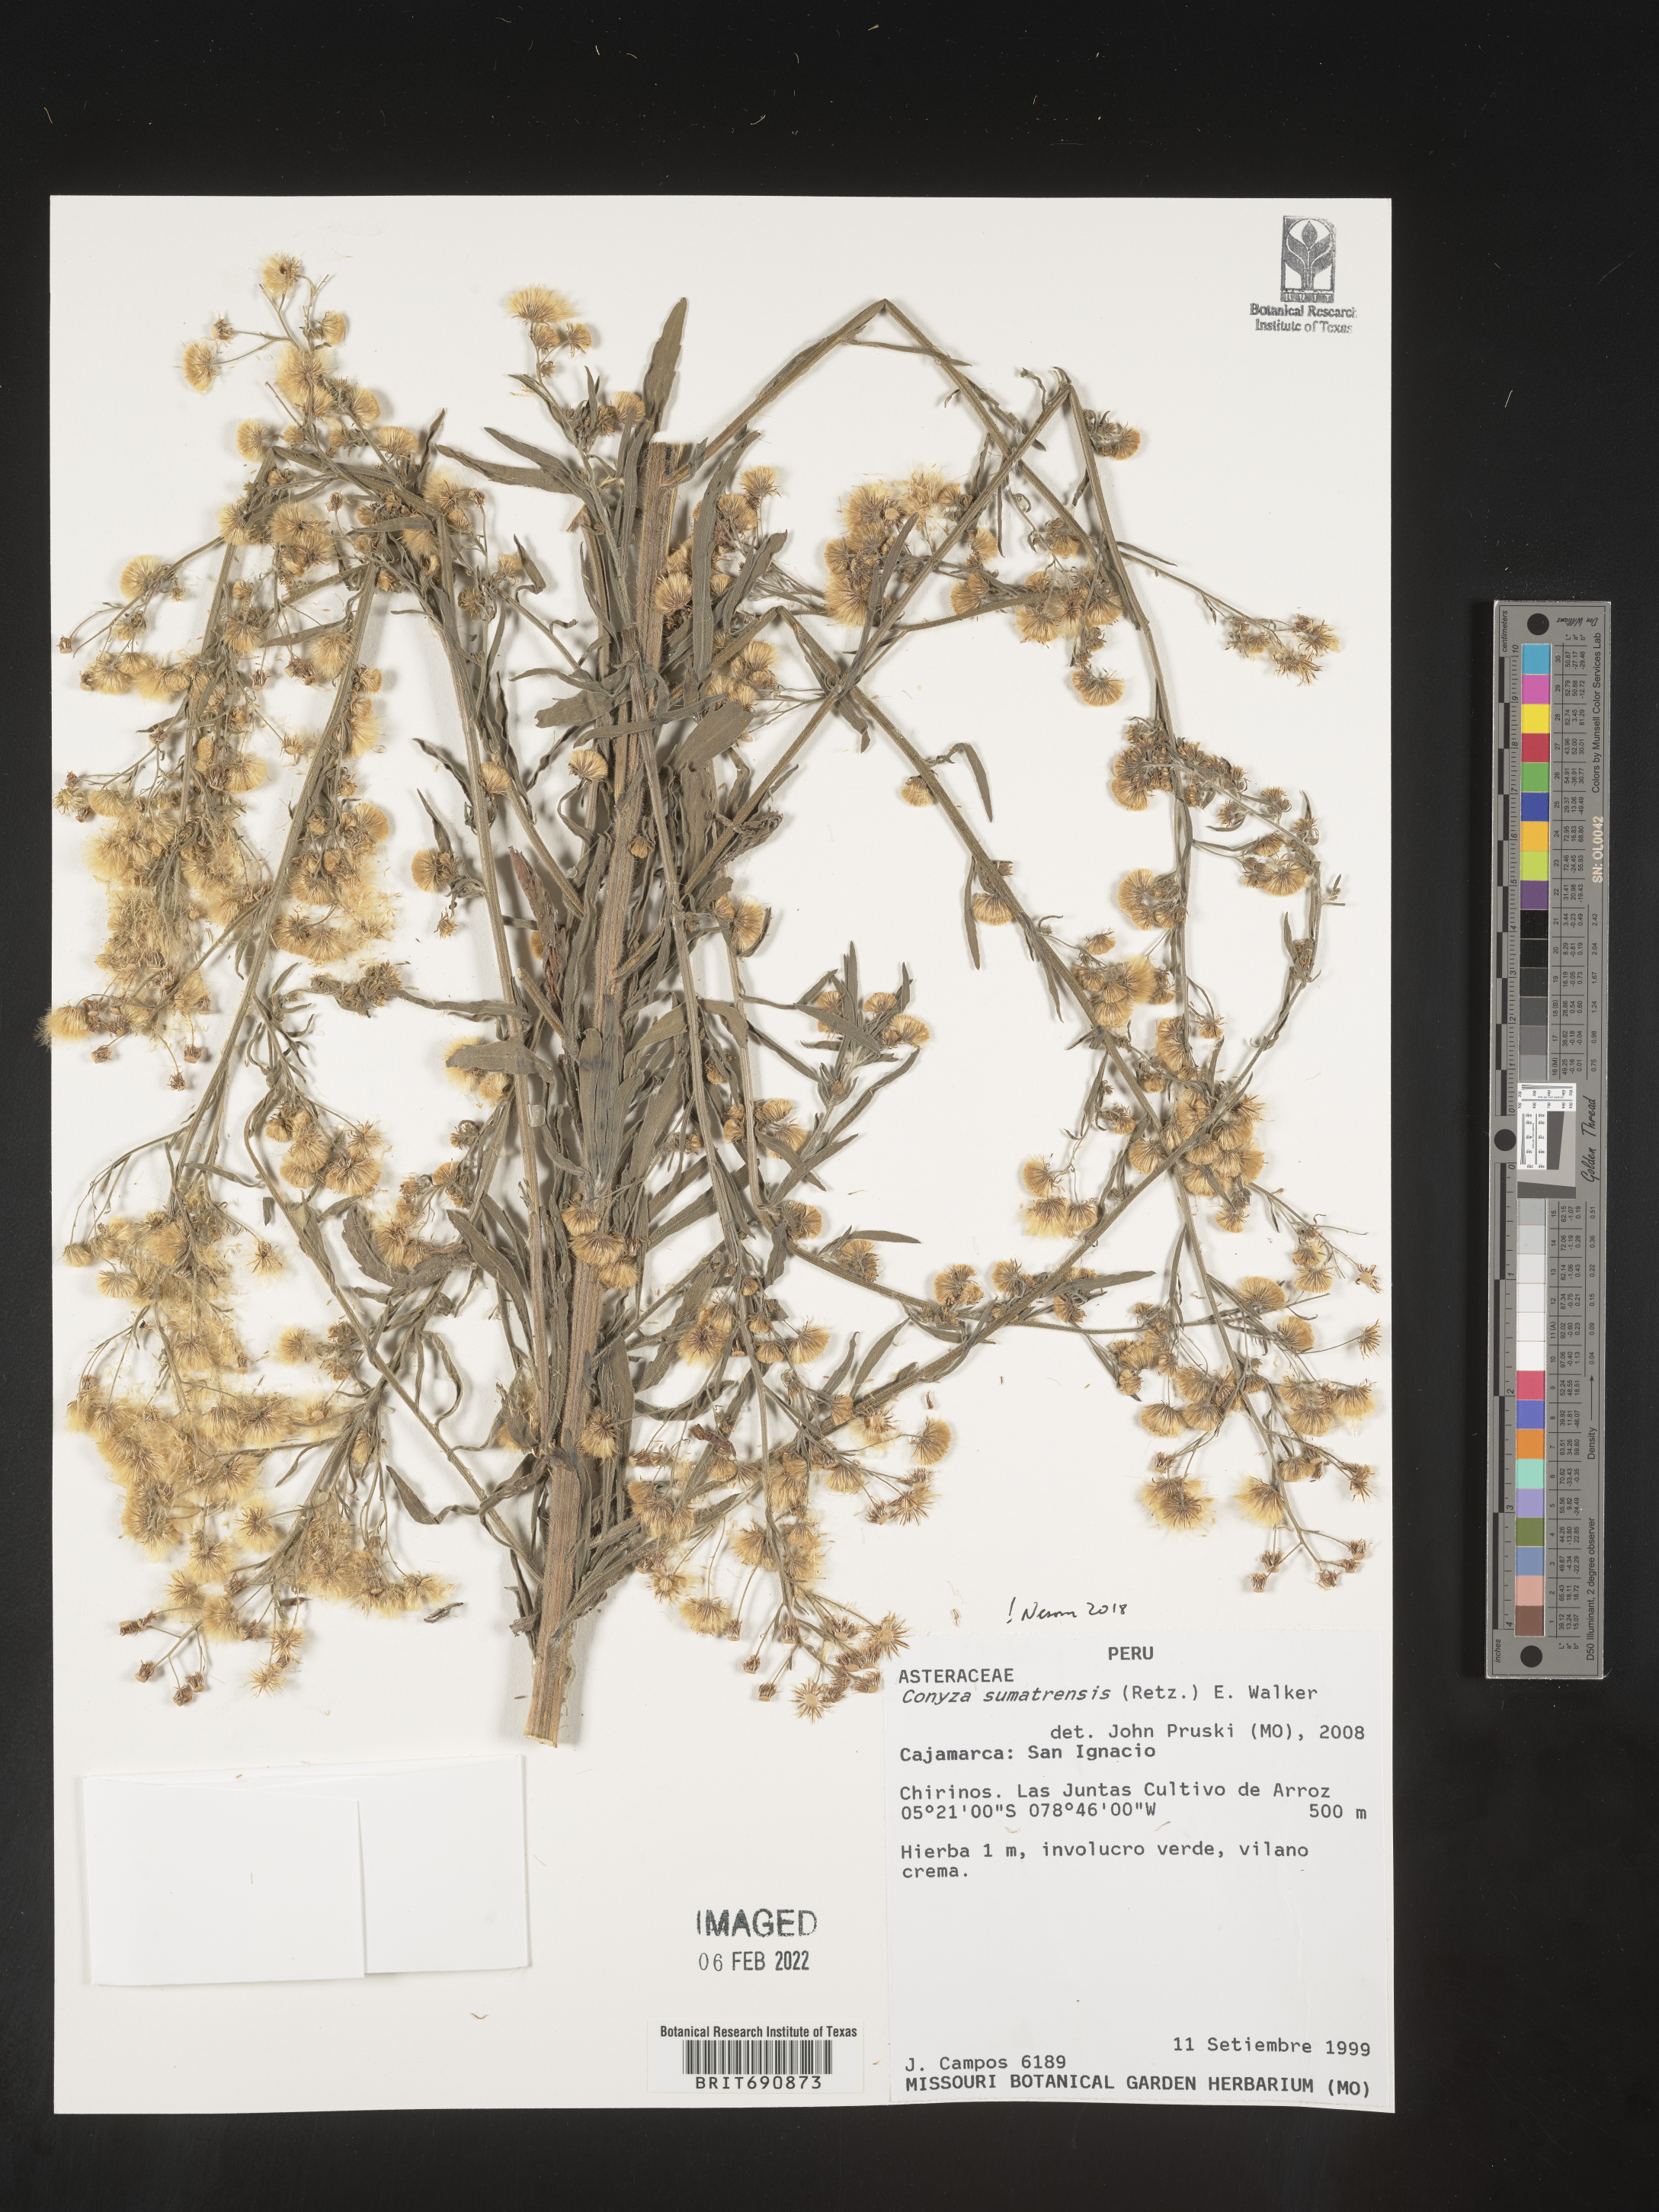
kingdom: Plantae
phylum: Tracheophyta
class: Magnoliopsida
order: Asterales
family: Asteraceae
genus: Conyza
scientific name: Conyza
